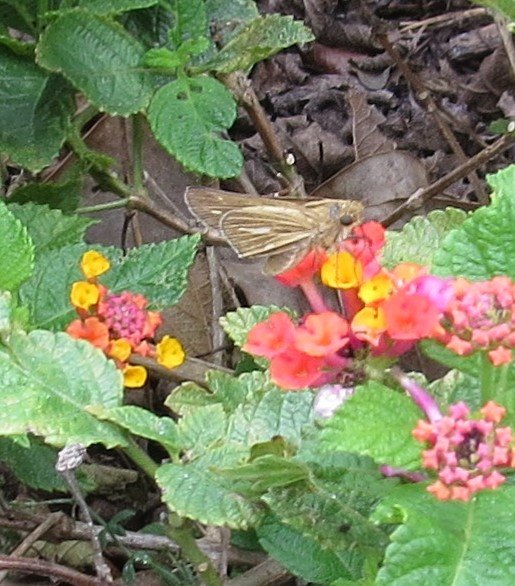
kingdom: Animalia
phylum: Arthropoda
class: Insecta
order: Lepidoptera
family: Hesperiidae
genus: Panoquina
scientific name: Panoquina panoquin
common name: Salt Marsh Skipper
